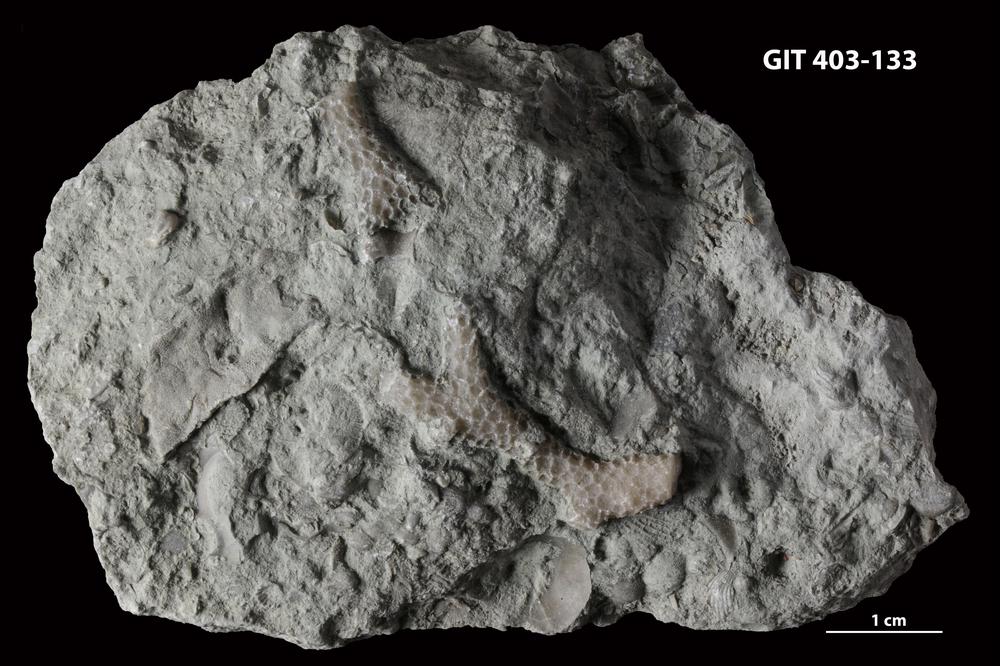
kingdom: Animalia
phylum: Cnidaria
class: Anthozoa
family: Pachyporidae
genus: Parastriatopora
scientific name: Parastriatopora
